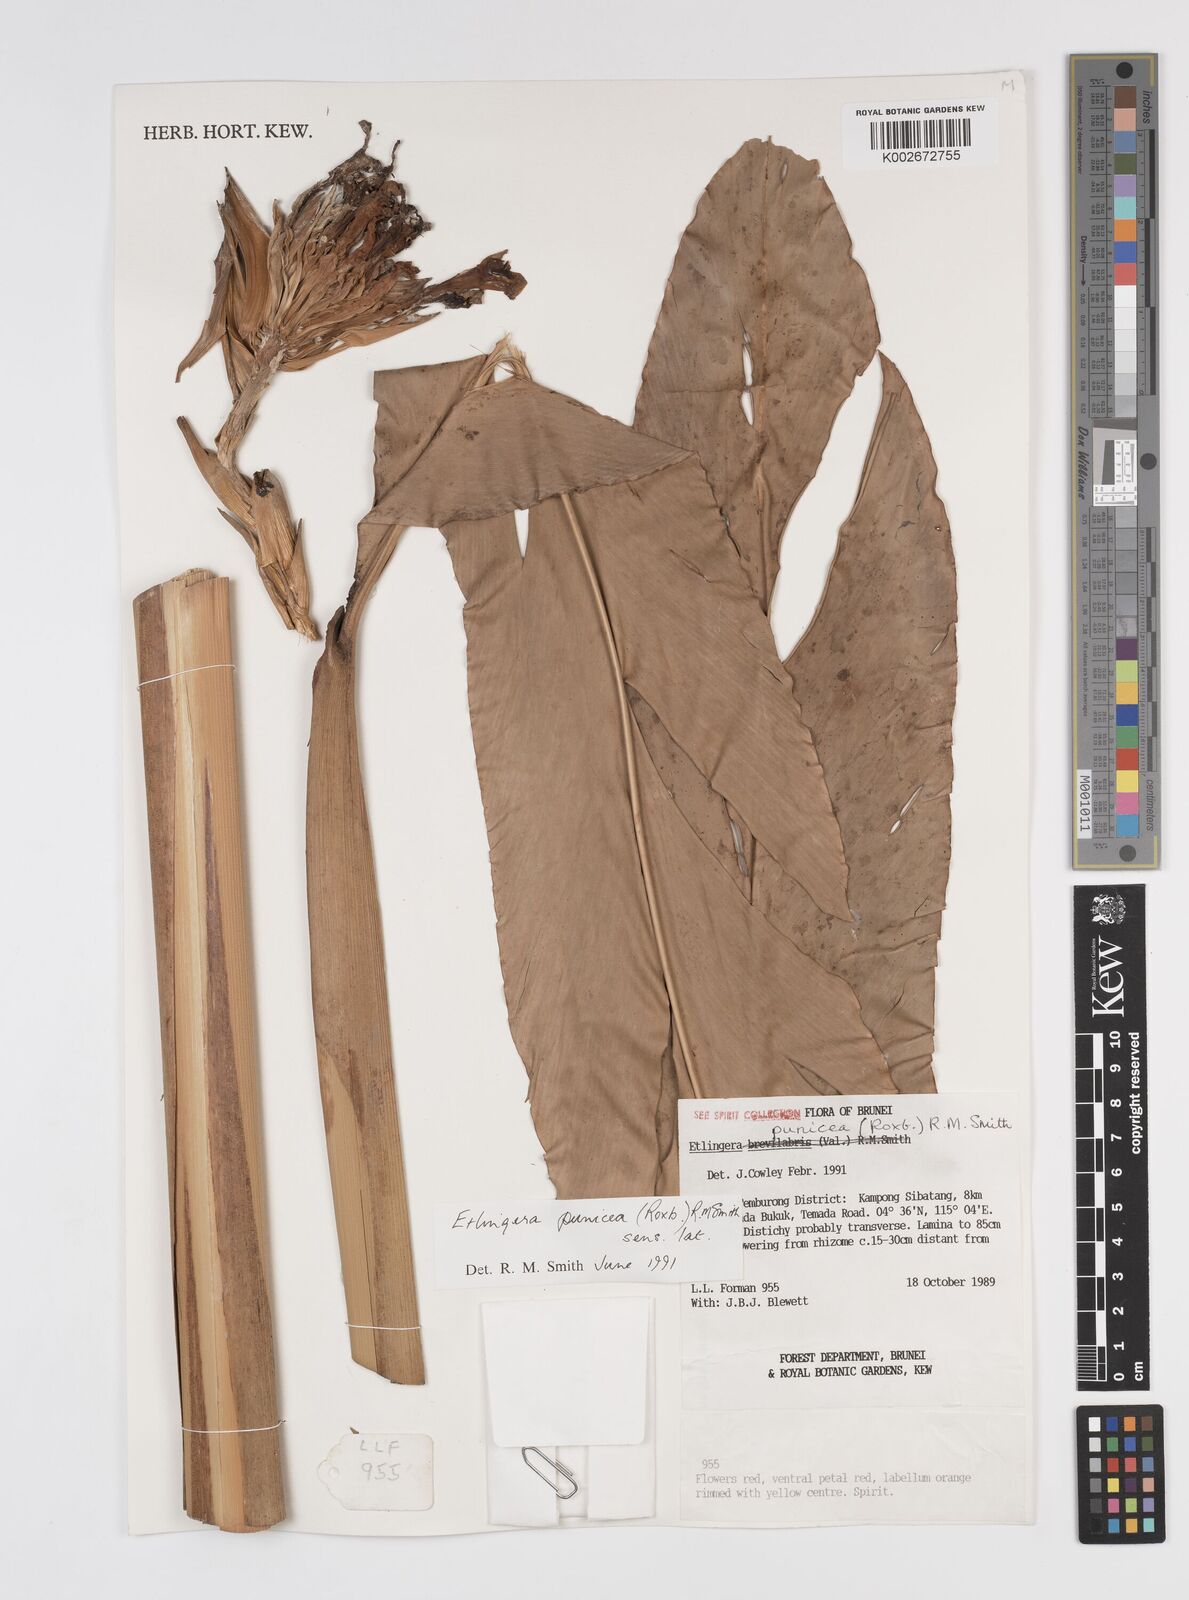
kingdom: Plantae
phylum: Tracheophyta
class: Liliopsida
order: Zingiberales
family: Zingiberaceae
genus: Etlingera
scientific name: Etlingera punicea
